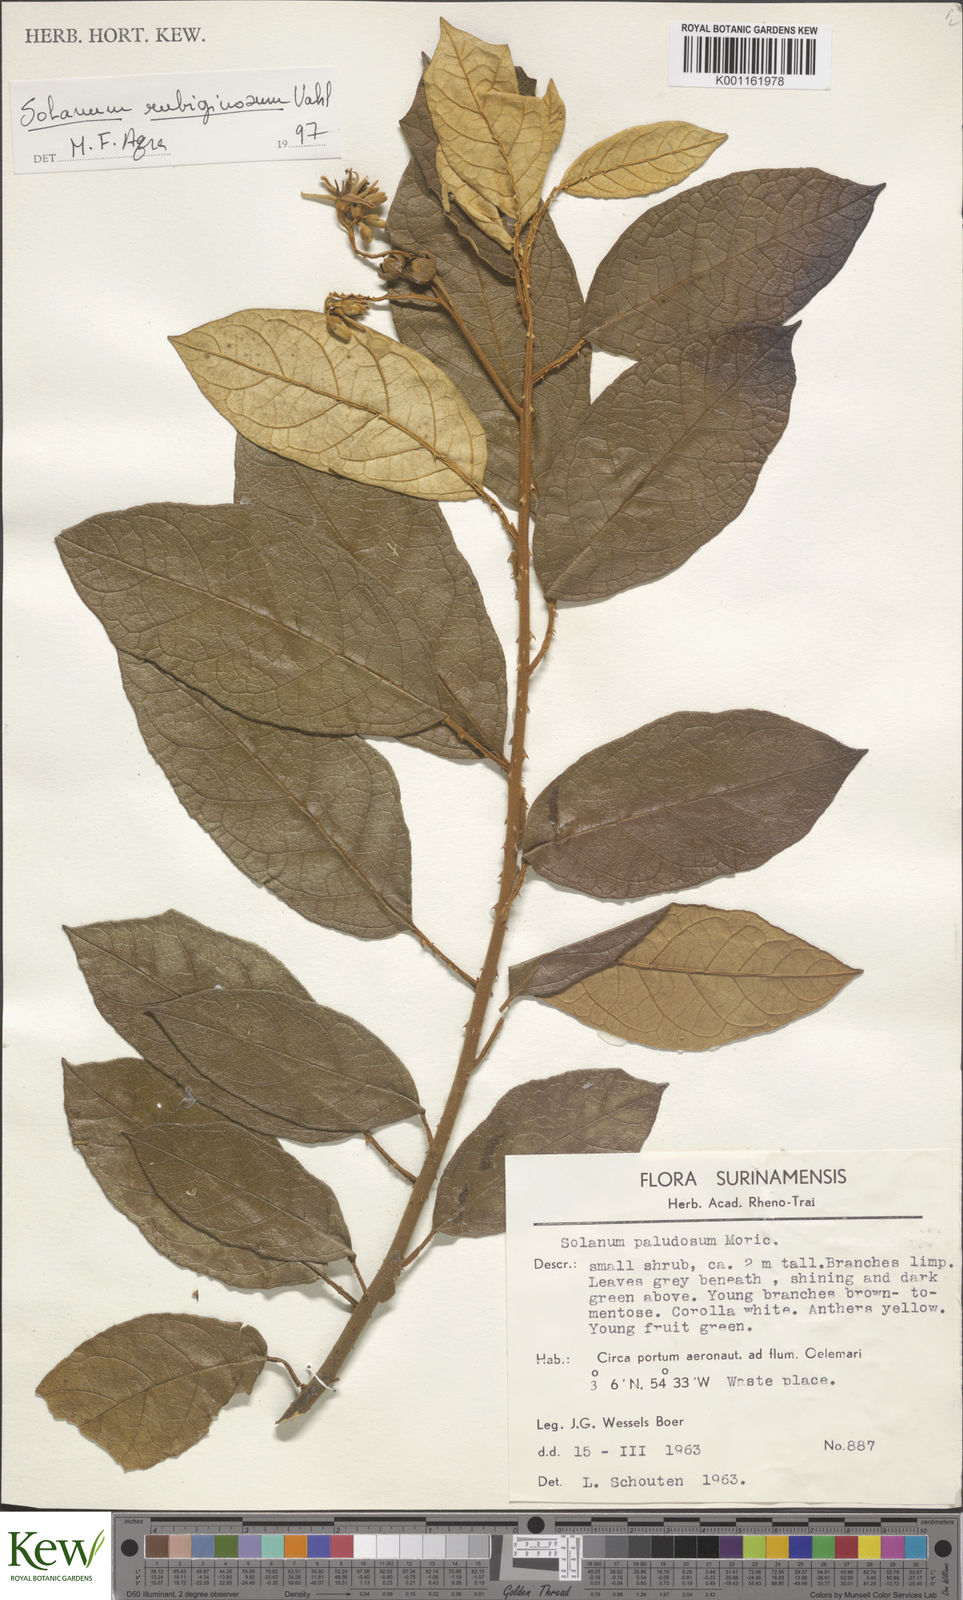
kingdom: Plantae
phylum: Tracheophyta
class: Magnoliopsida
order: Solanales
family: Solanaceae
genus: Solanum
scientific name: Solanum rubiginosum
